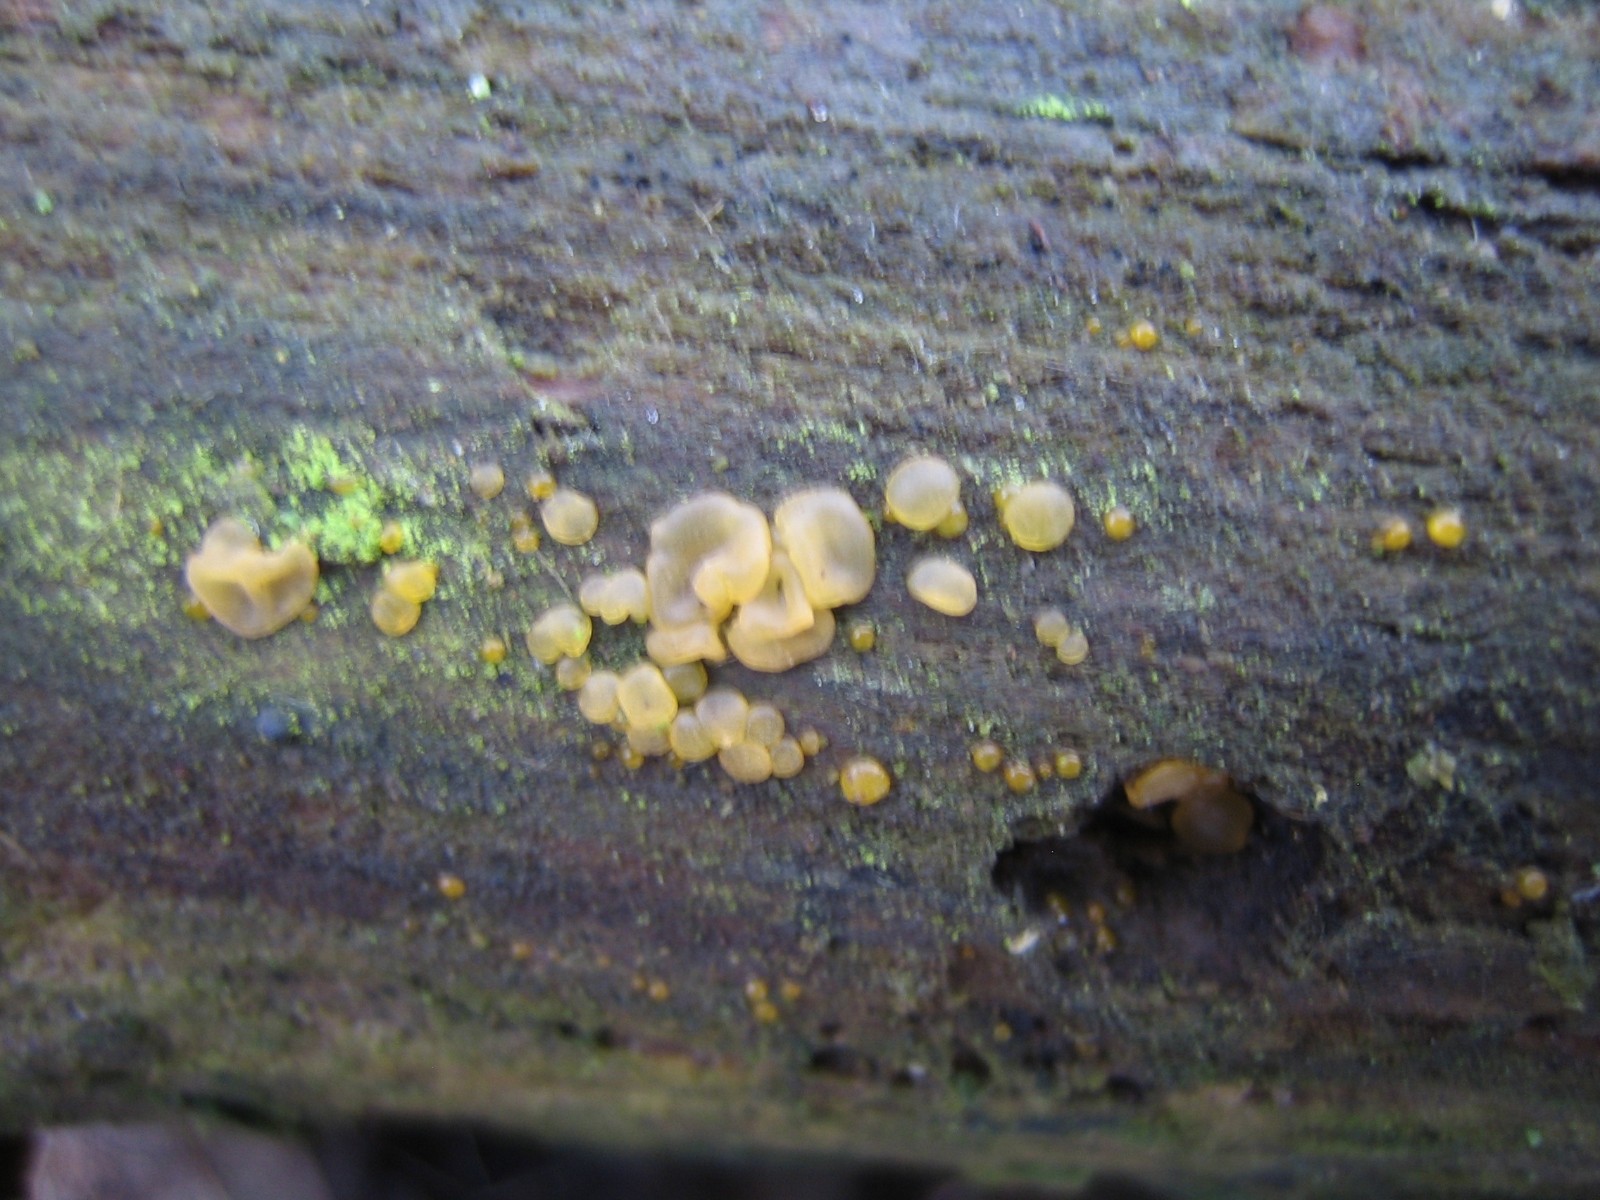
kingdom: Fungi
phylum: Basidiomycota
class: Dacrymycetes
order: Dacrymycetales
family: Dacrymycetaceae
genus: Dacrymyces
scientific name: Dacrymyces lacrymalis
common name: rynket tåresvamp
